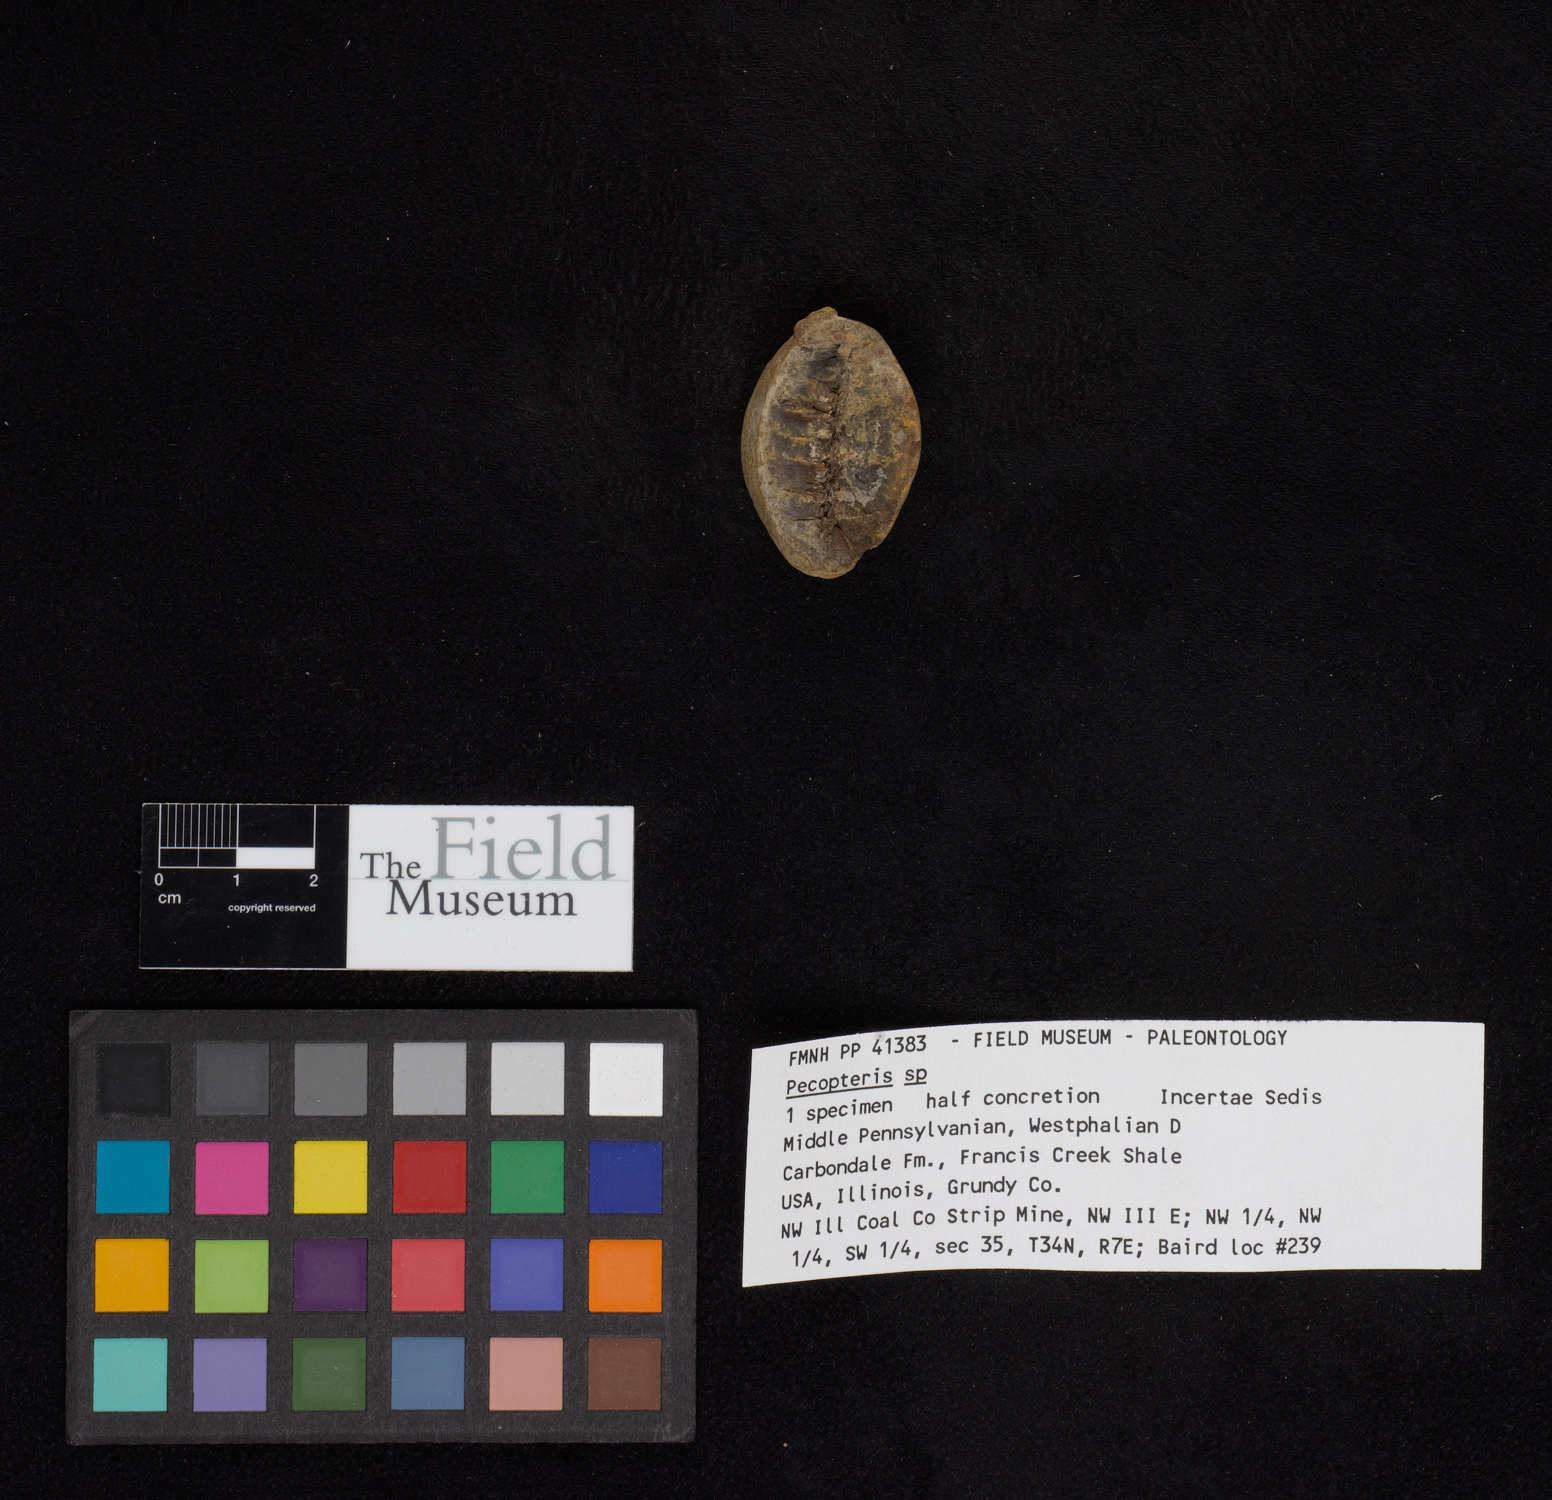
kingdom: Plantae
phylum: Tracheophyta
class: Polypodiopsida
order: Marattiales
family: Asterothecaceae
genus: Pecopteris
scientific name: Pecopteris
